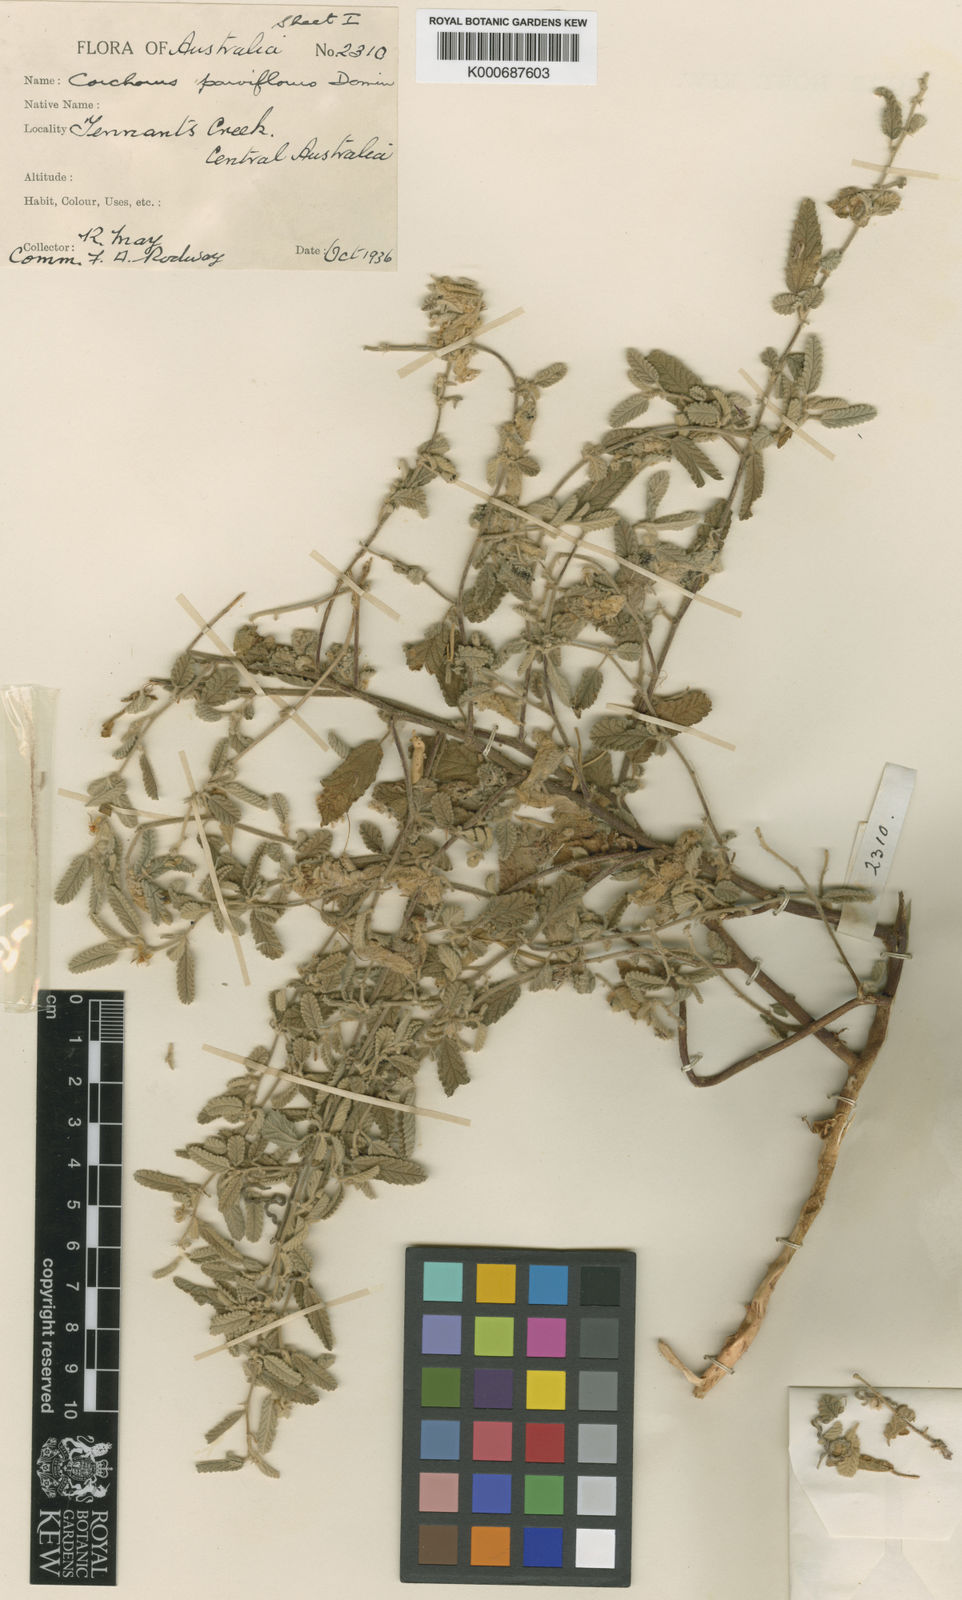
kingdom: Plantae
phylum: Tracheophyta
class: Magnoliopsida
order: Malvales
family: Malvaceae
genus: Corchorus
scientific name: Corchorus sidoides
